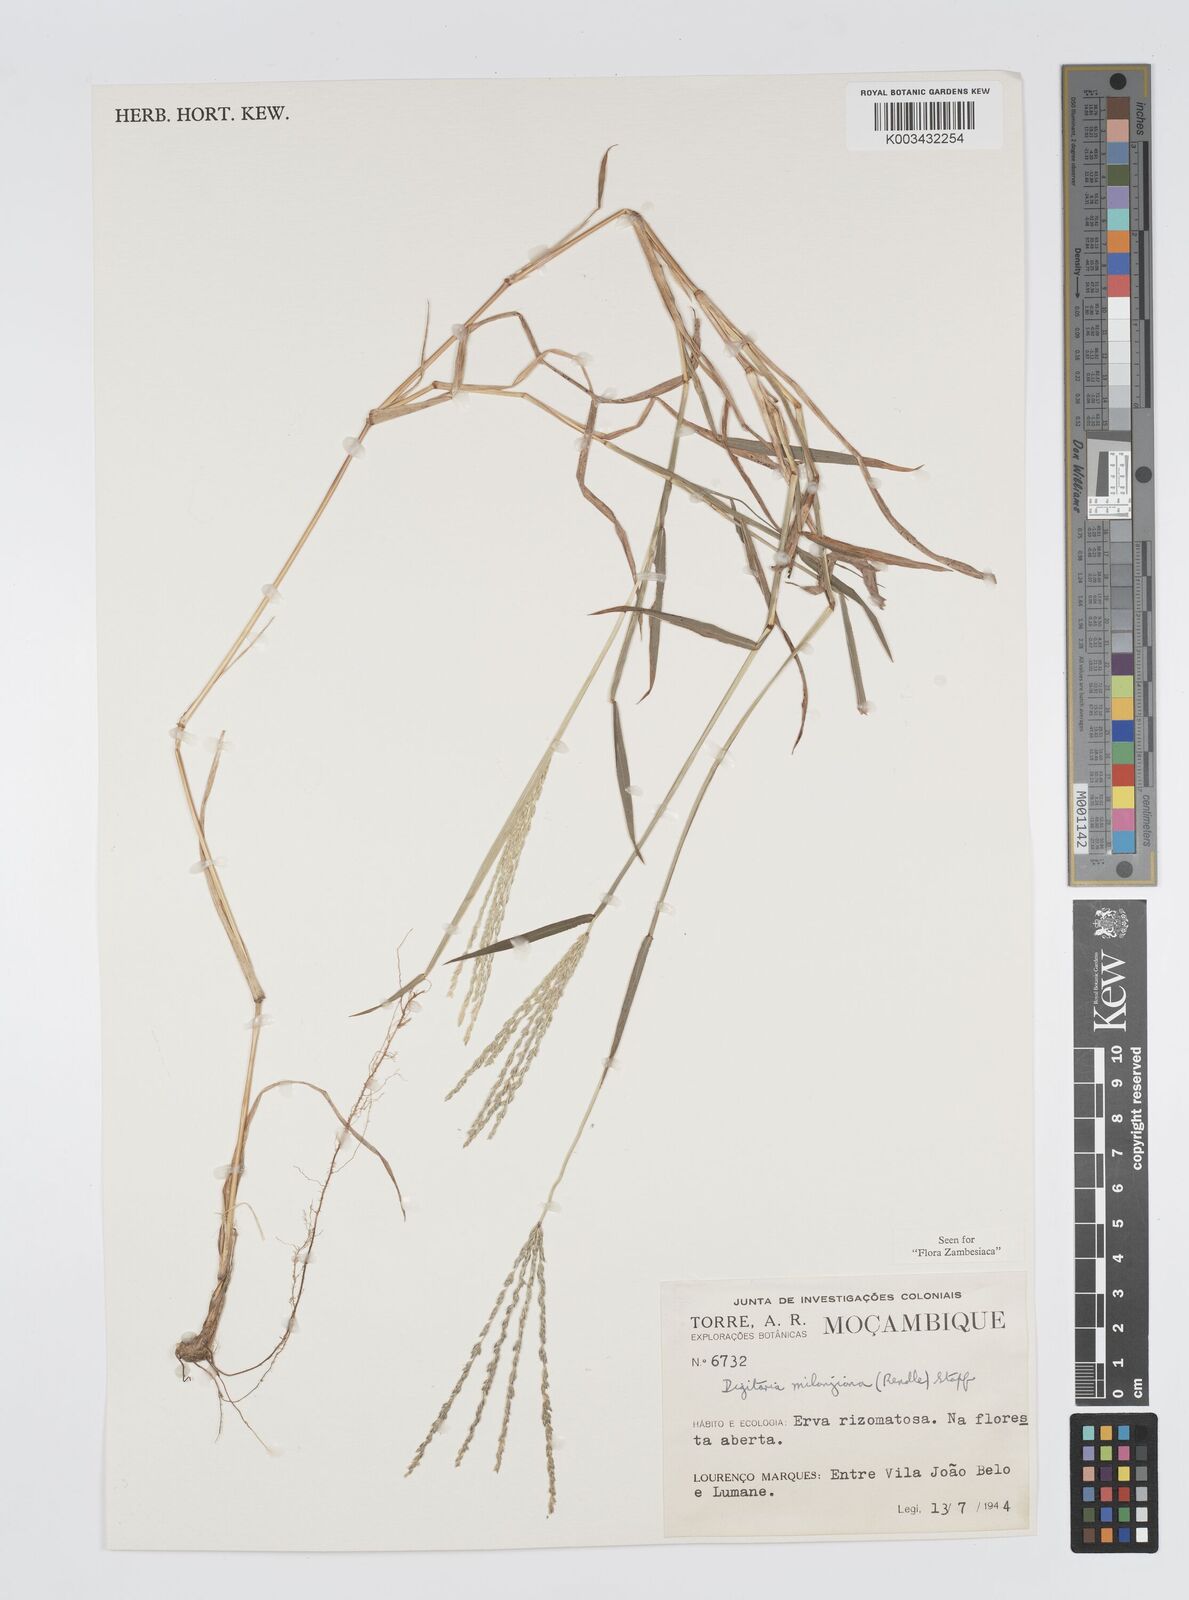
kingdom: Plantae
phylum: Tracheophyta
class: Liliopsida
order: Poales
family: Poaceae
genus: Digitaria
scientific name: Digitaria milanjiana
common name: Madagascar crabgrass
